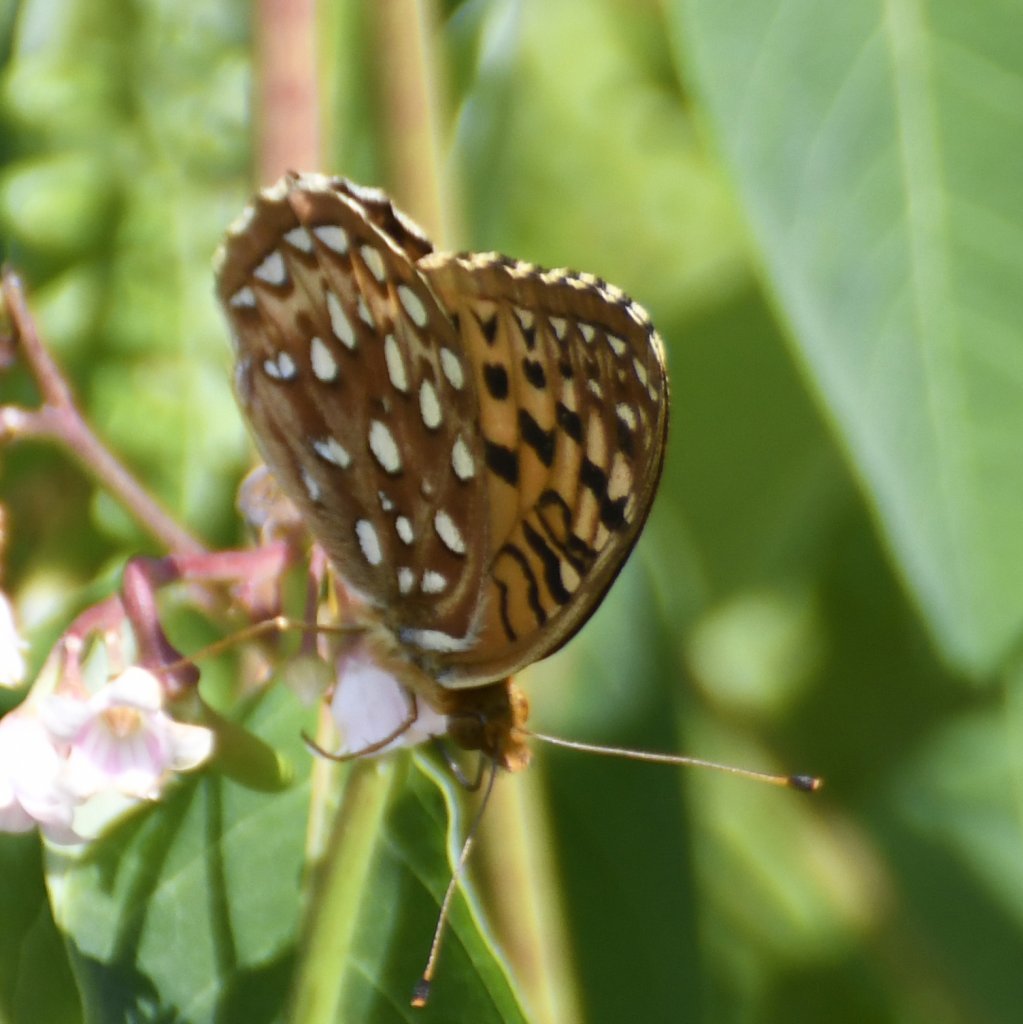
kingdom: Animalia
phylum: Arthropoda
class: Insecta
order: Lepidoptera
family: Nymphalidae
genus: Speyeria
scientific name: Speyeria aphrodite
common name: Aphrodite Fritillary
